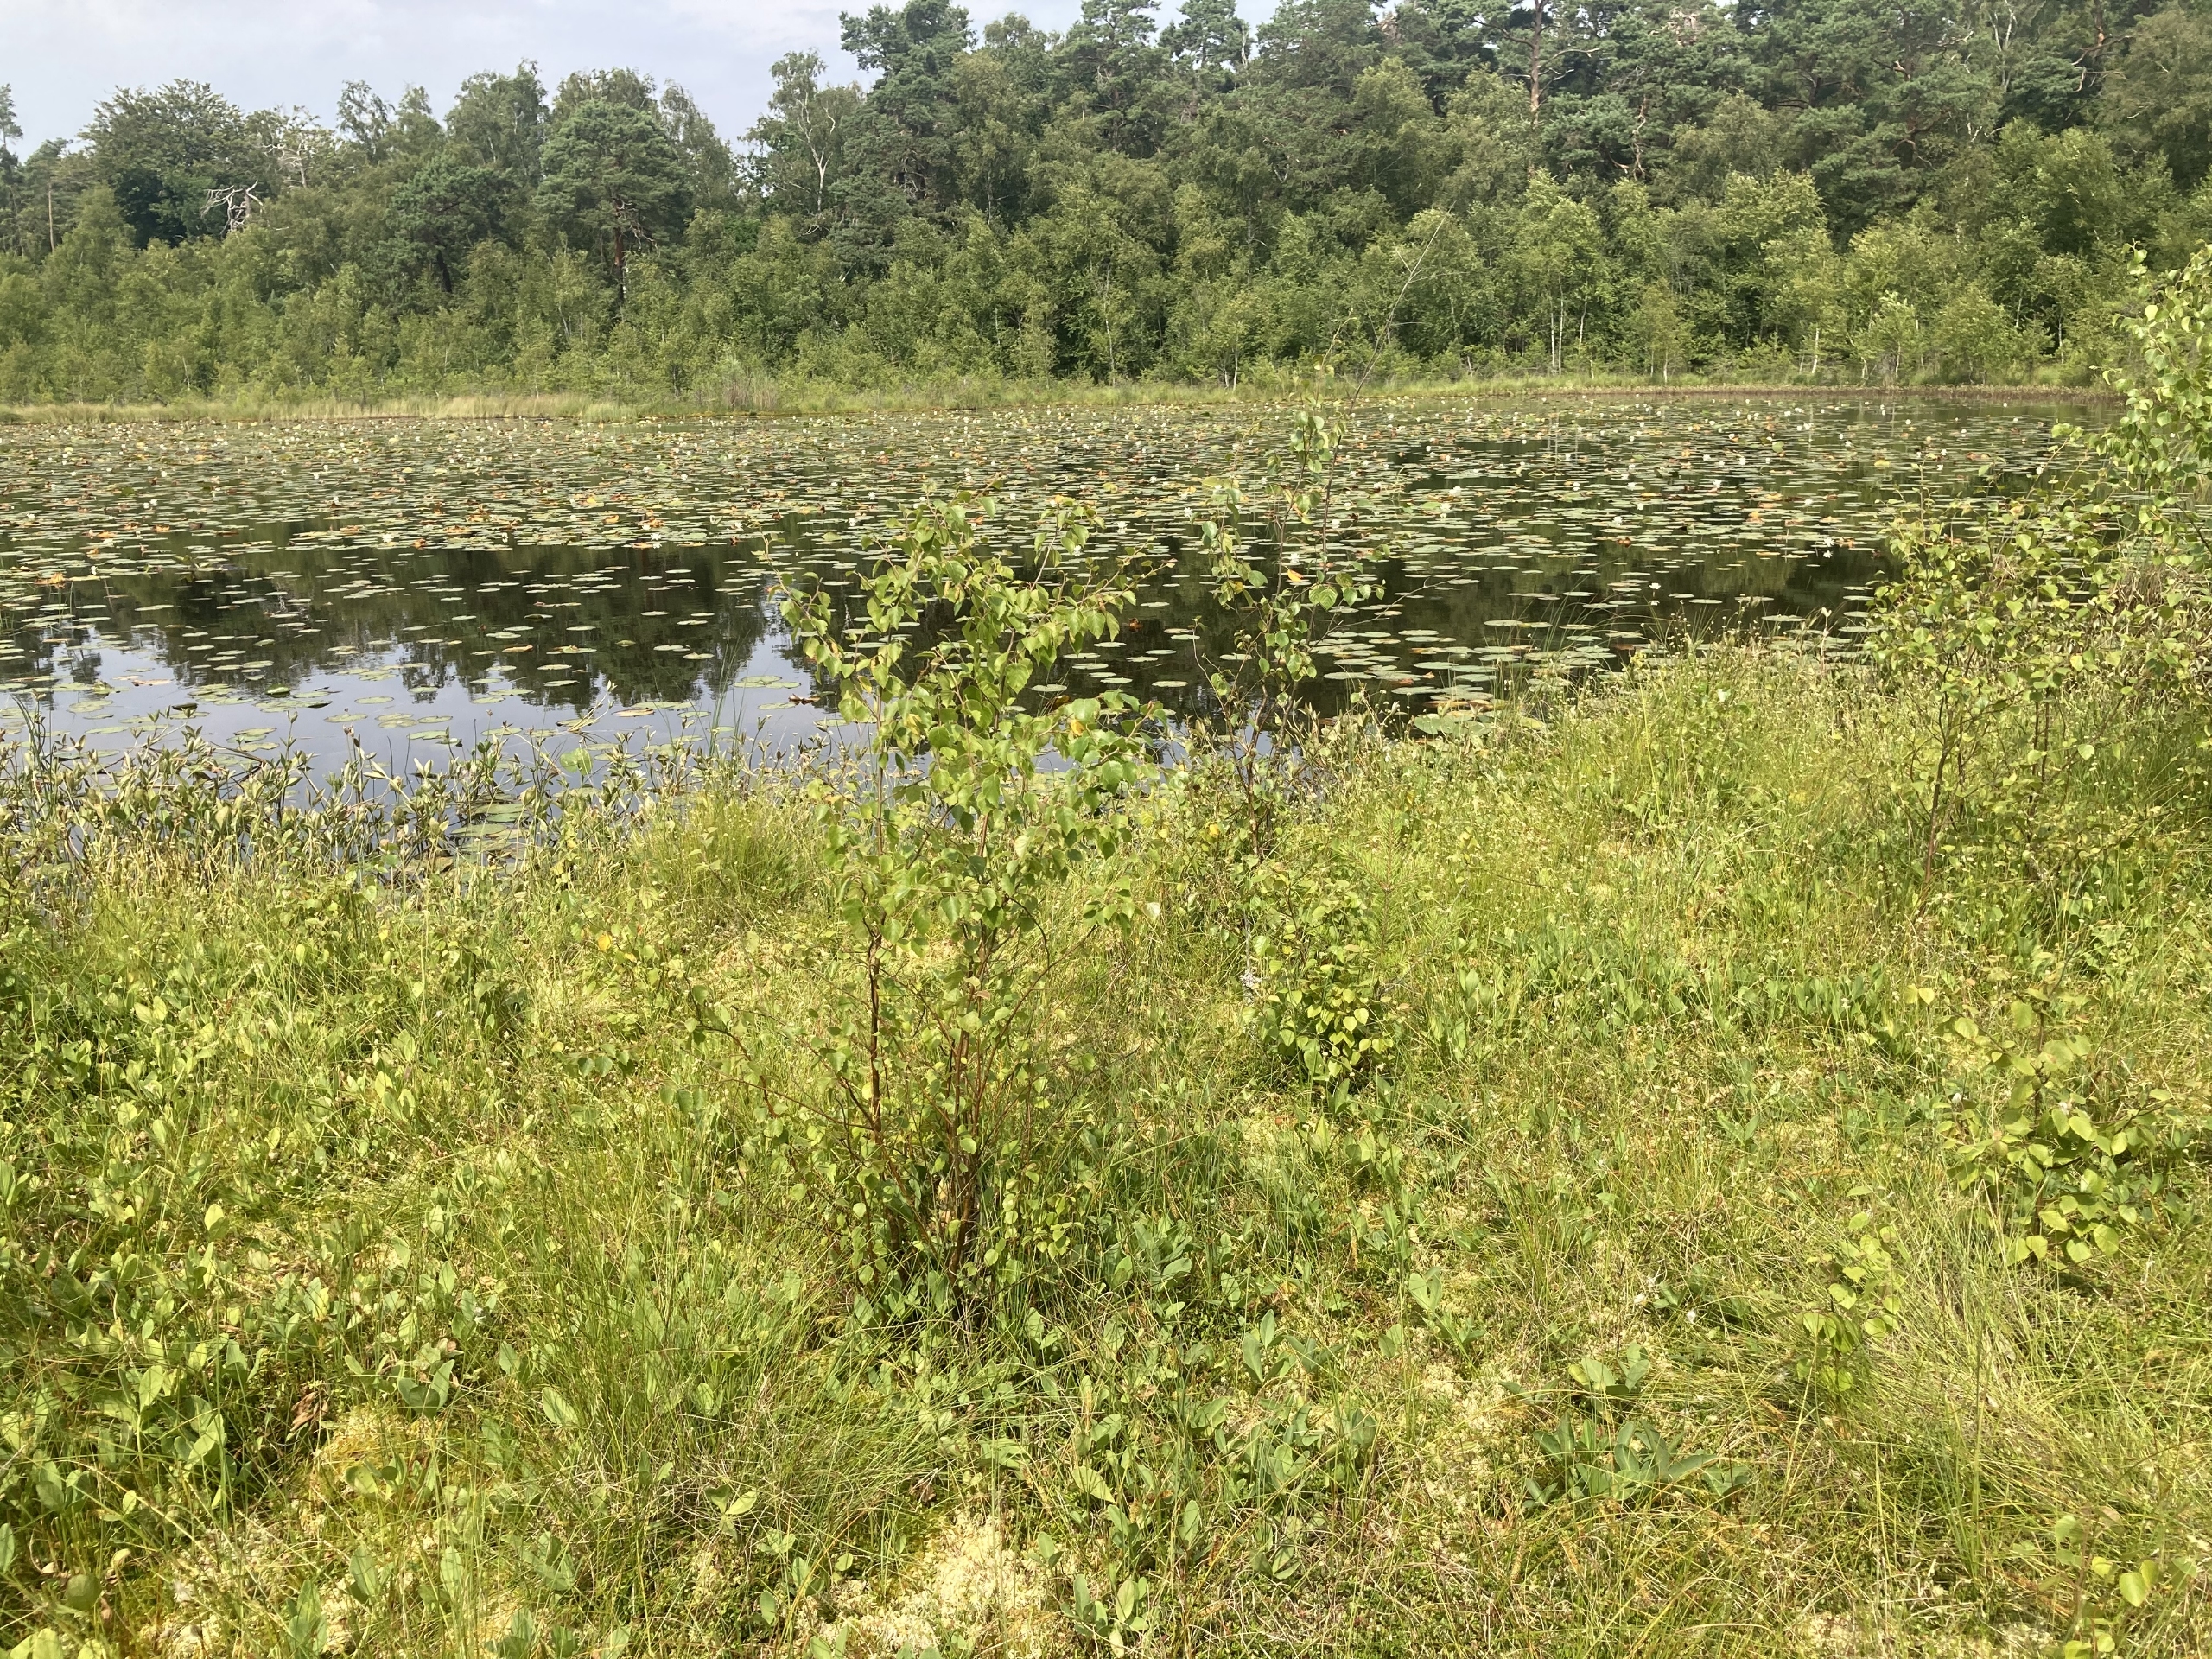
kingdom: Plantae
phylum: Tracheophyta
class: Magnoliopsida
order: Asterales
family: Menyanthaceae
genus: Menyanthes
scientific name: Menyanthes trifoliata
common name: Bukkeblad
